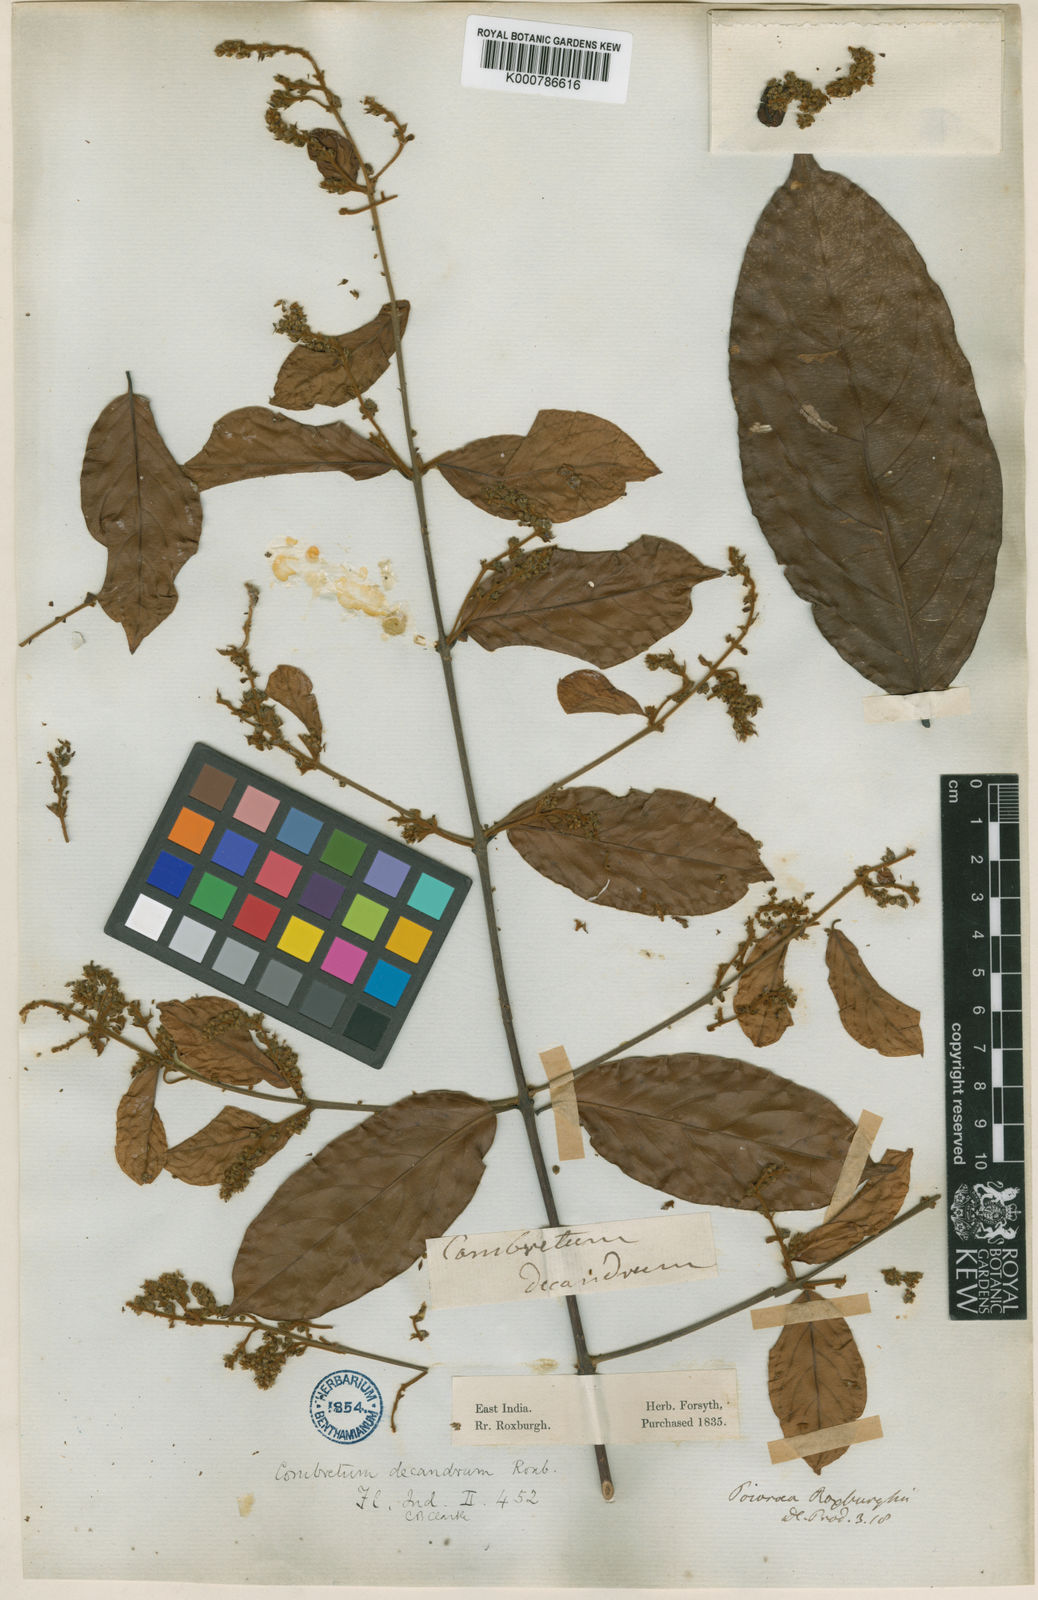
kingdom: Plantae
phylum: Tracheophyta
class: Magnoliopsida
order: Myrtales
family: Combretaceae
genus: Combretum
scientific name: Combretum roxburghii
